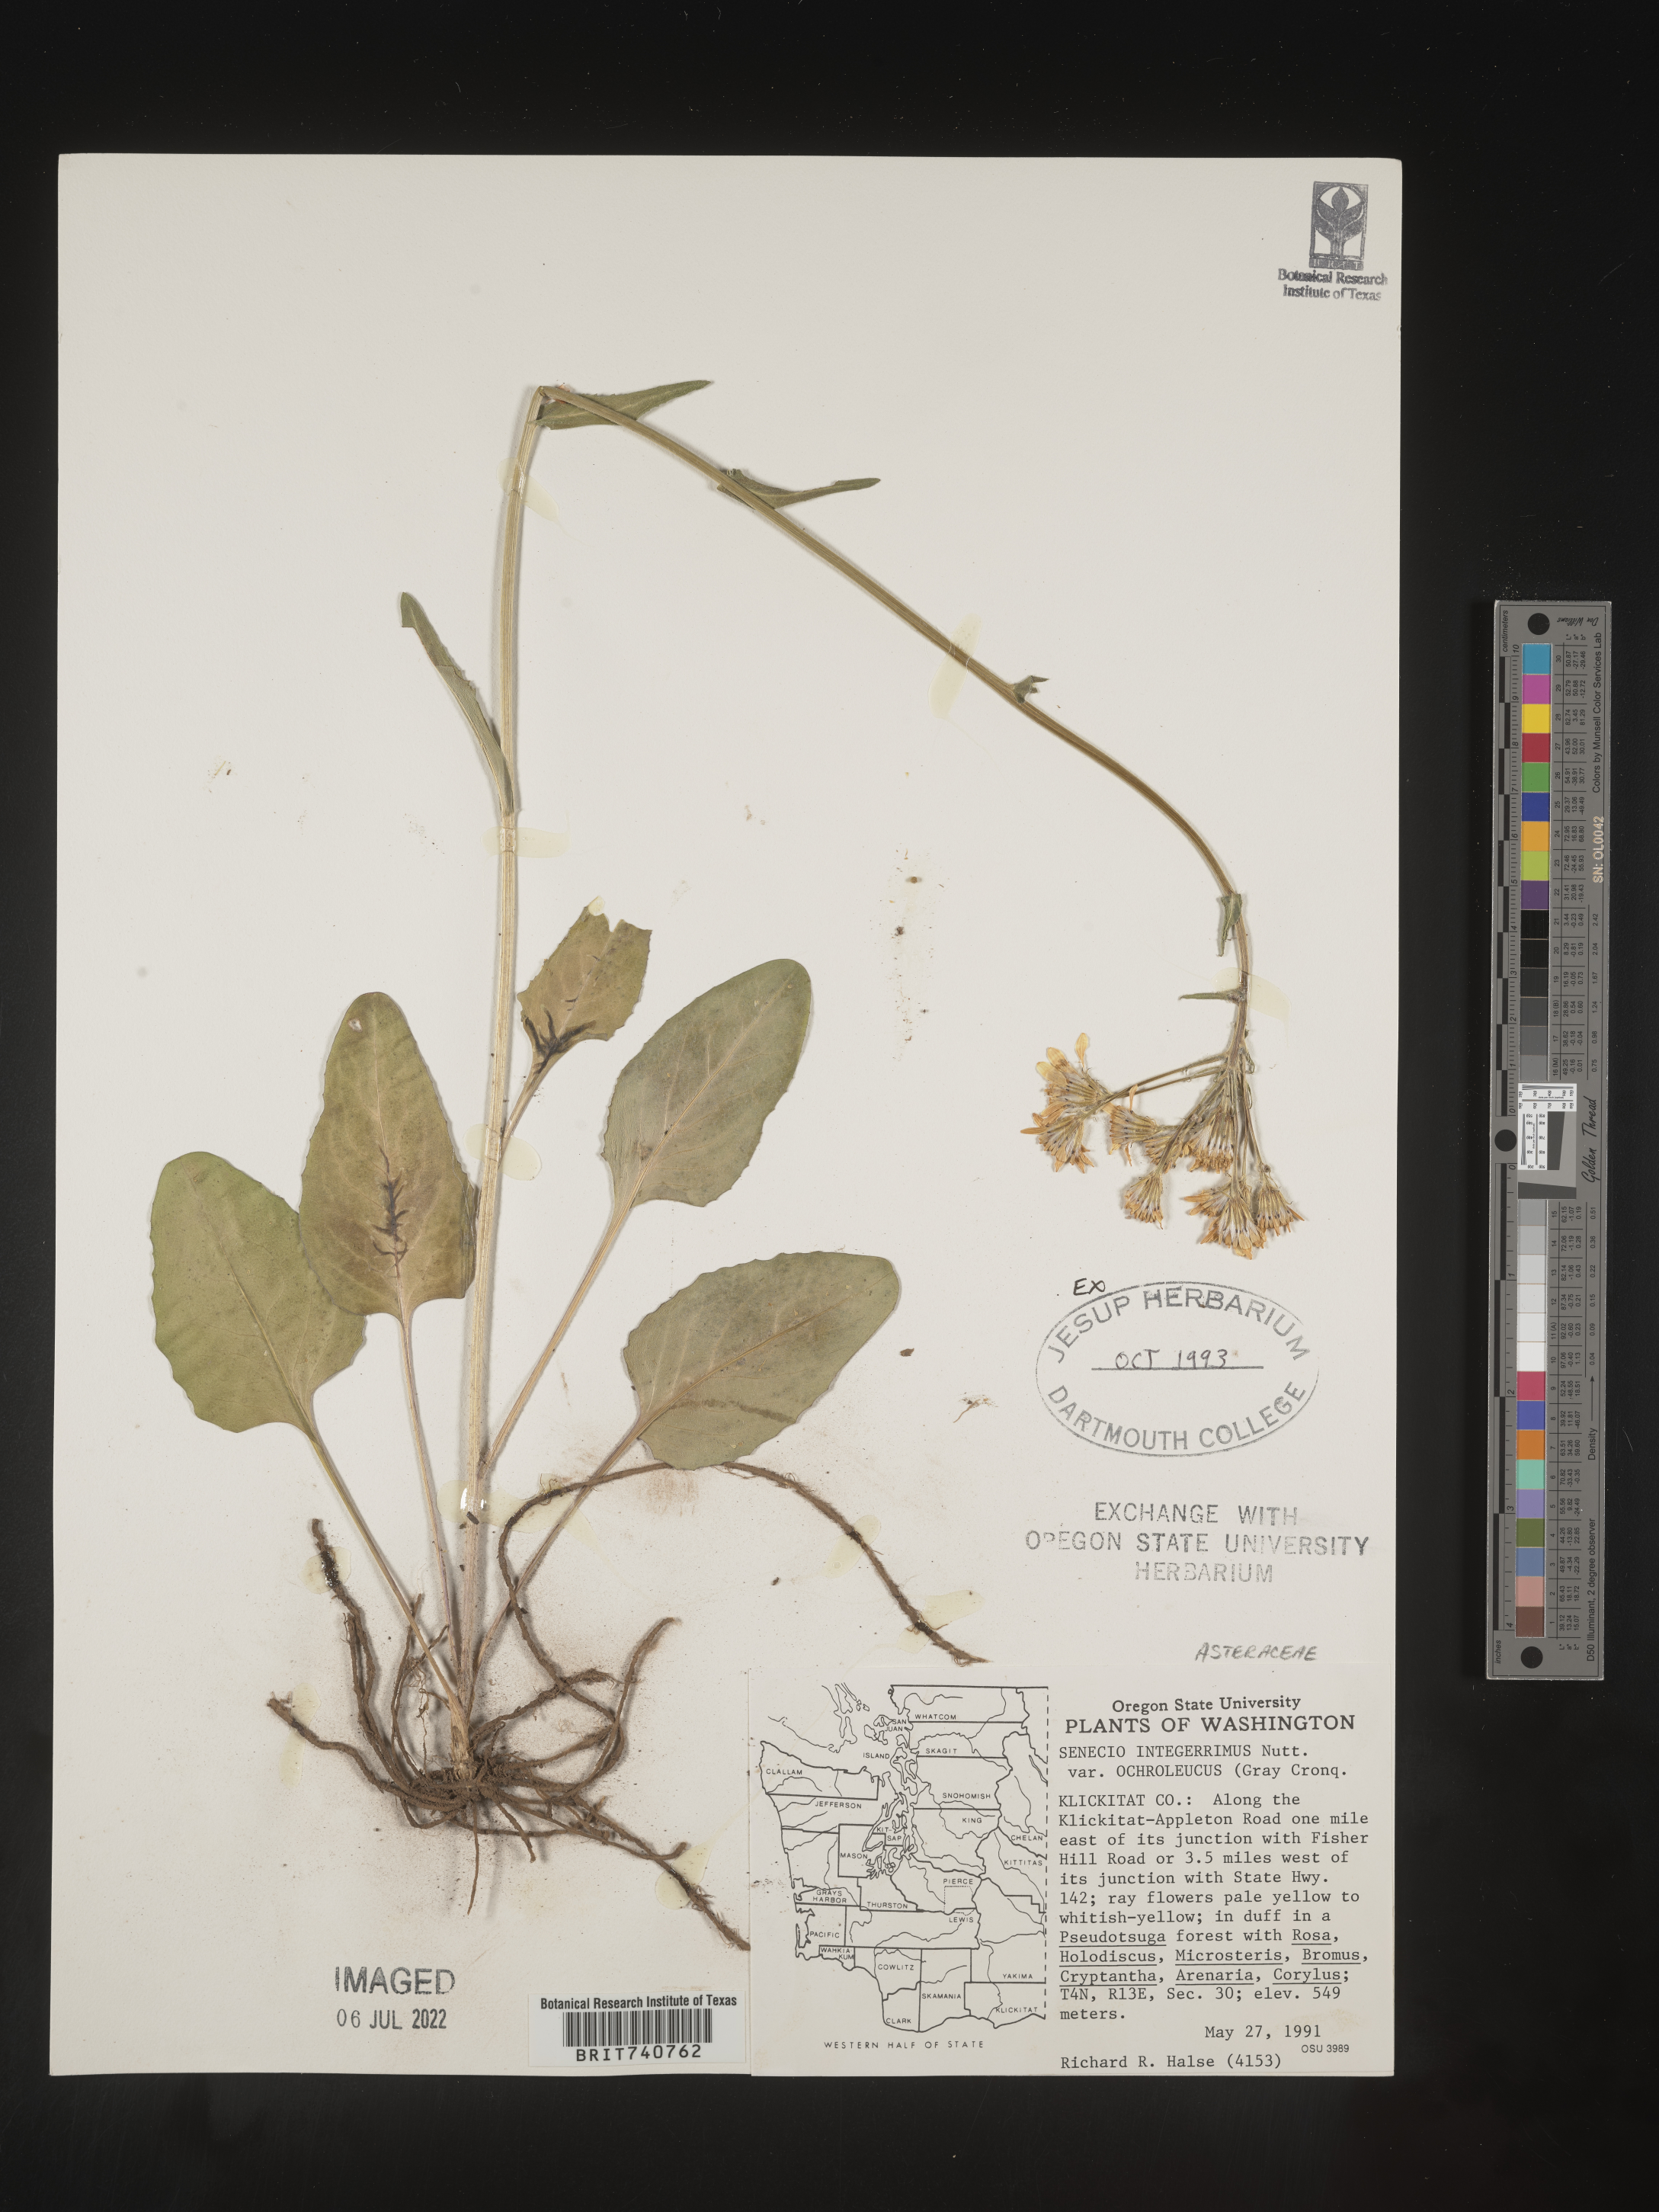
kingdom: Plantae
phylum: Tracheophyta
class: Magnoliopsida
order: Asterales
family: Asteraceae
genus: Senecio
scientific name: Senecio integerrimus
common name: Gaugeplant
